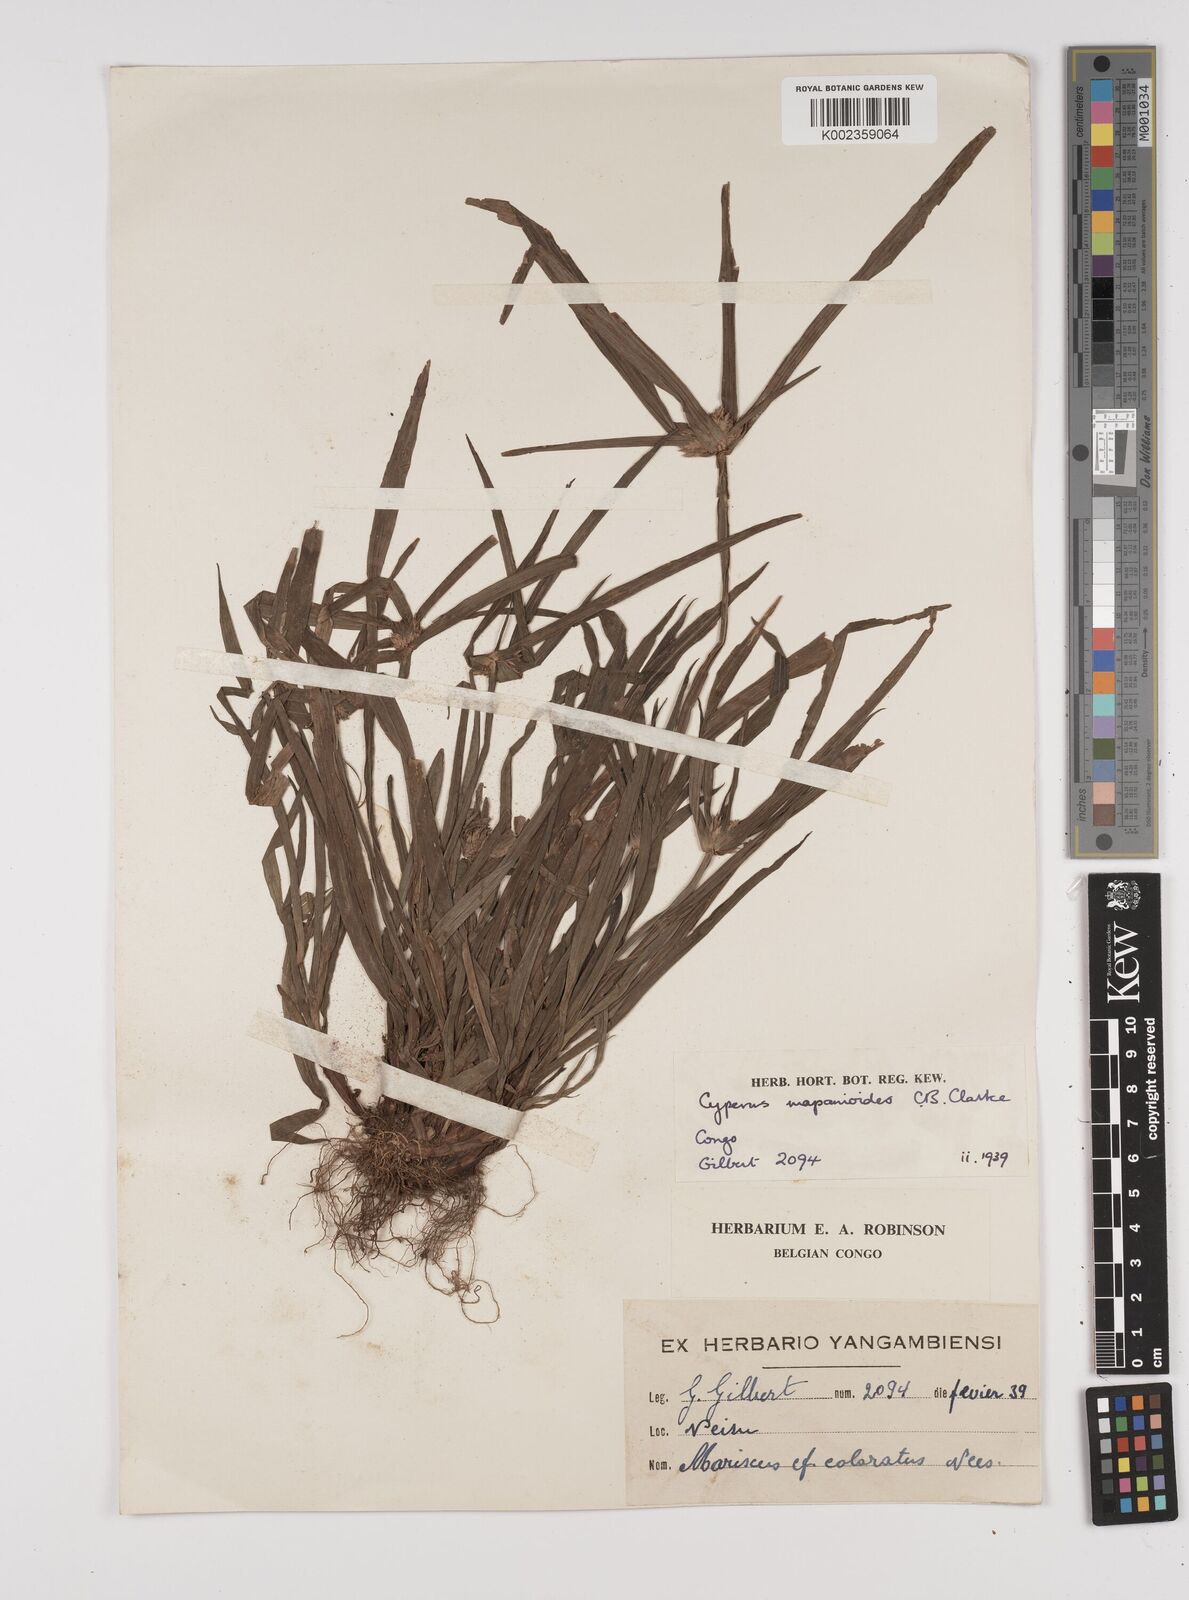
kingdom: Plantae
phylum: Tracheophyta
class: Liliopsida
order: Poales
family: Cyperaceae
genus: Cyperus
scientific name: Cyperus mapanioides
